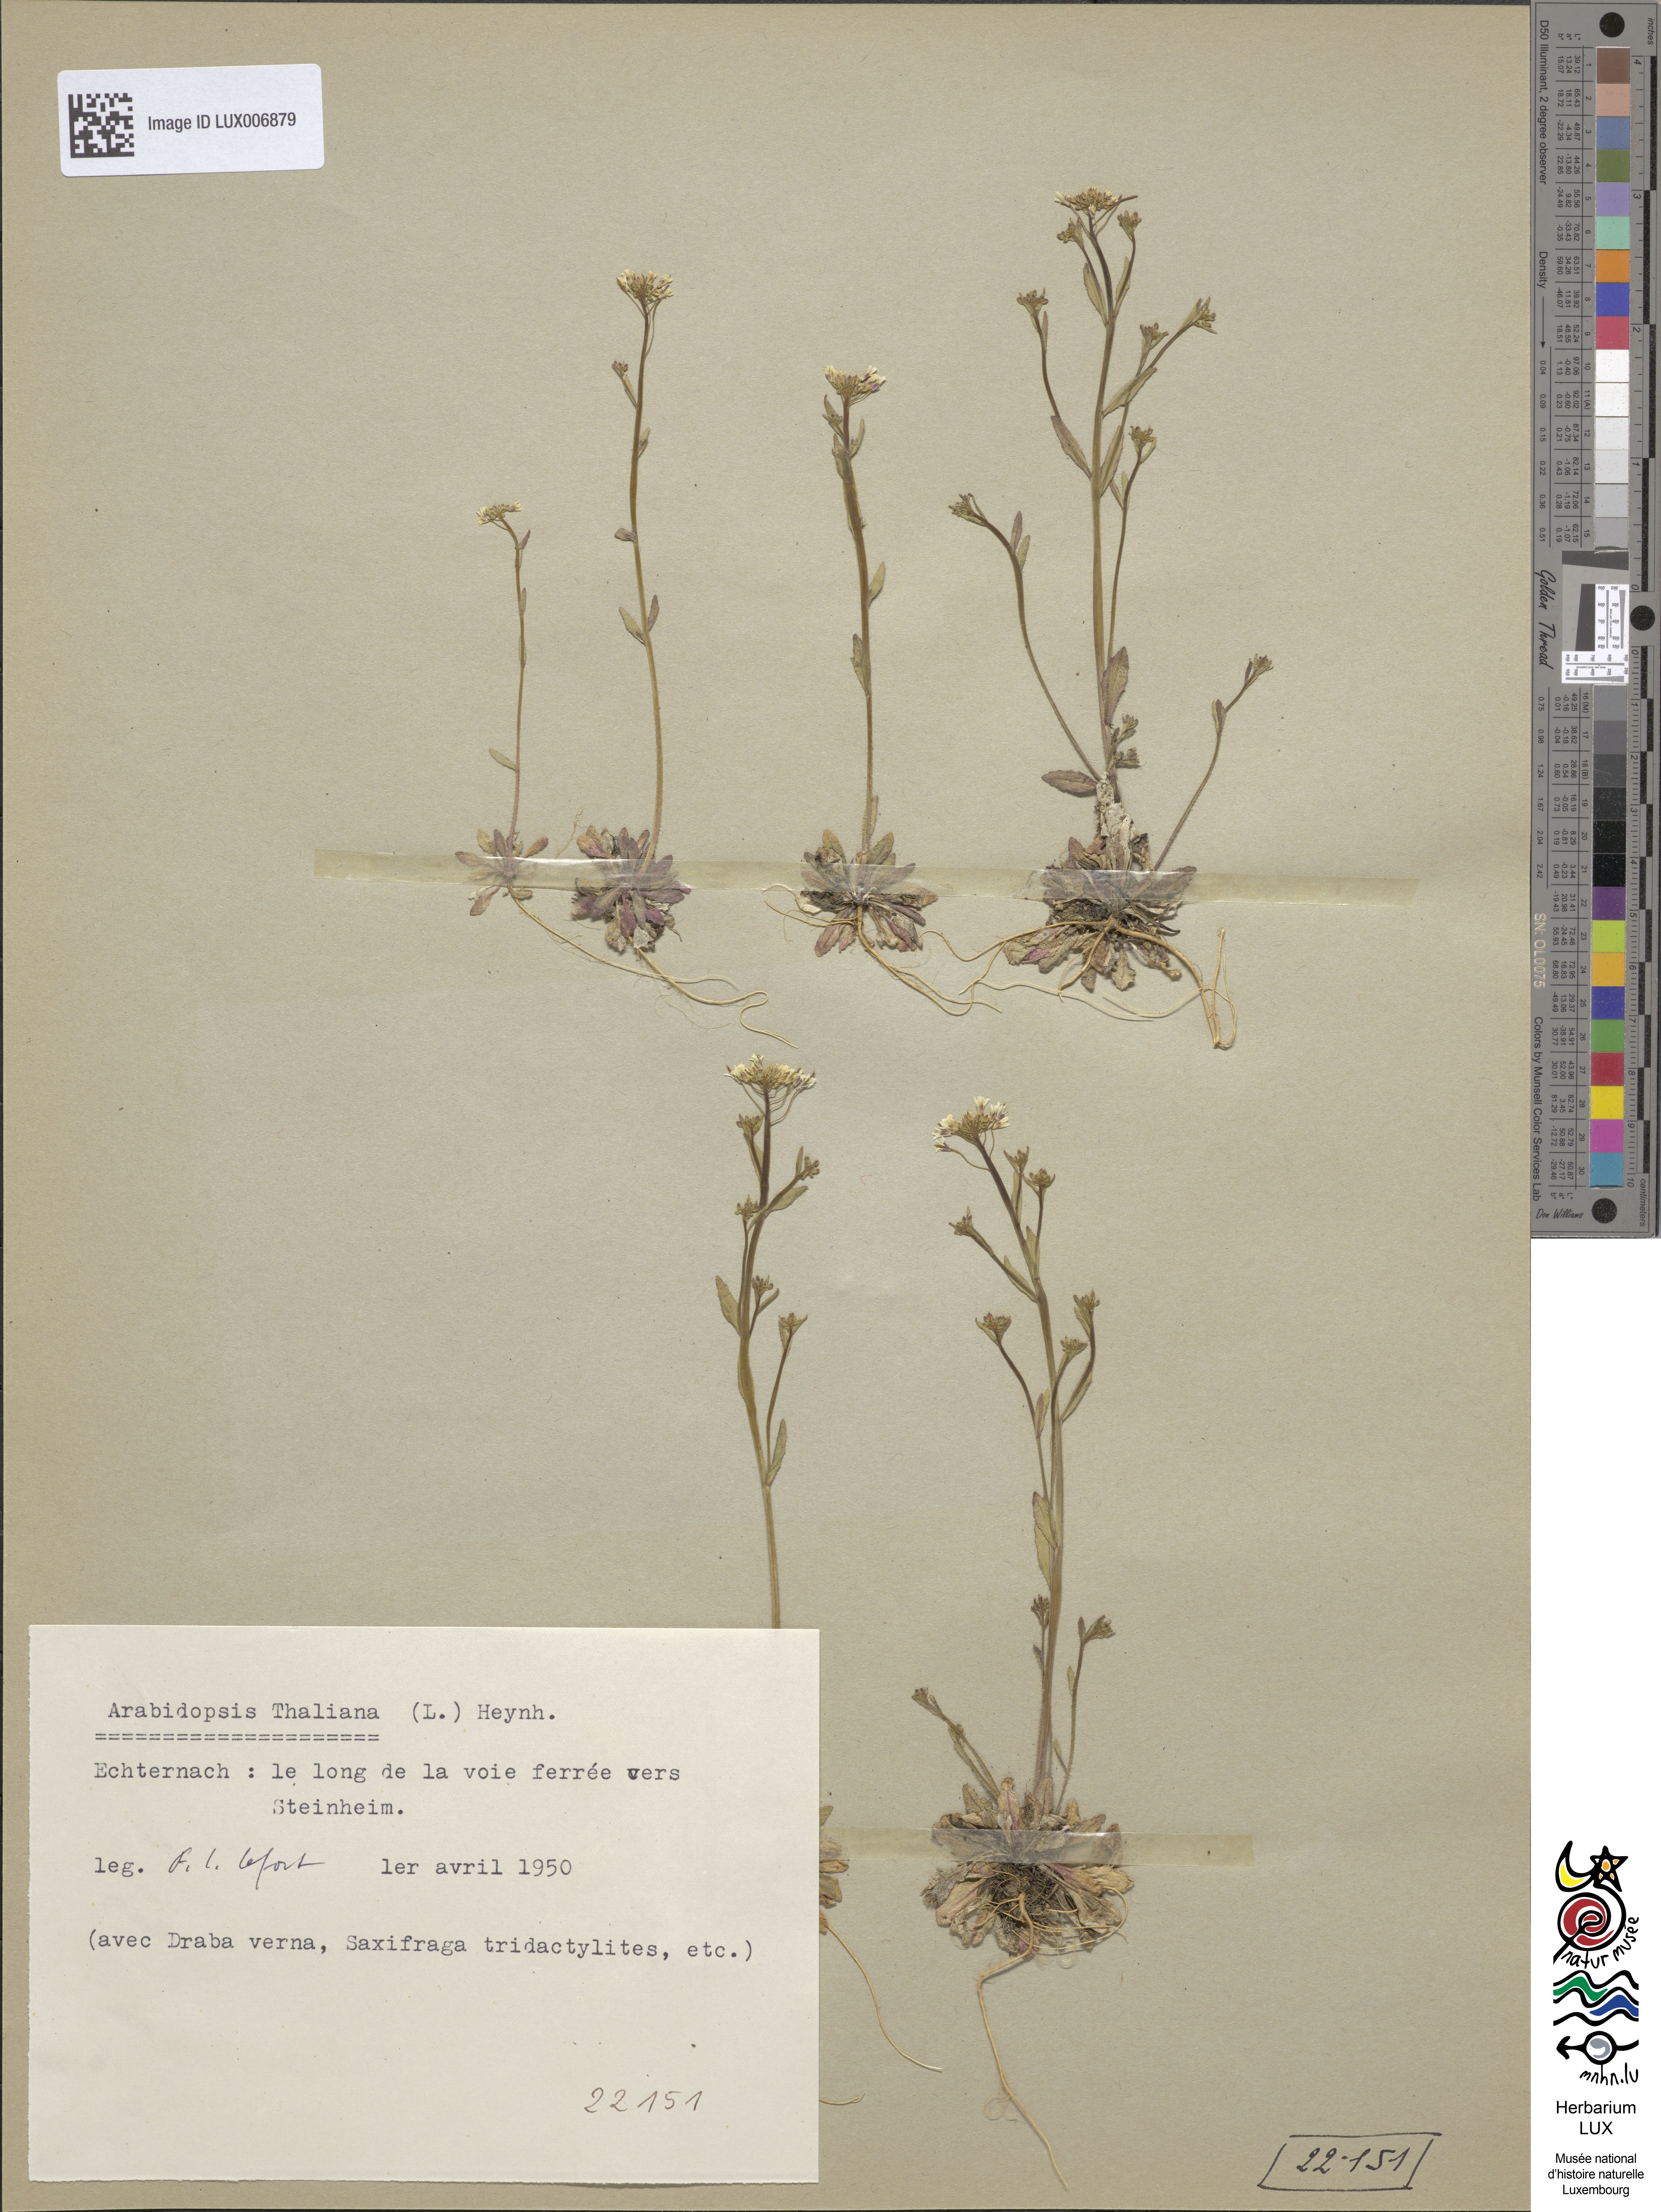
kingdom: Plantae
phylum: Tracheophyta
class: Magnoliopsida
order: Brassicales
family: Brassicaceae
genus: Arabidopsis
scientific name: Arabidopsis thaliana
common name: Thale cress
